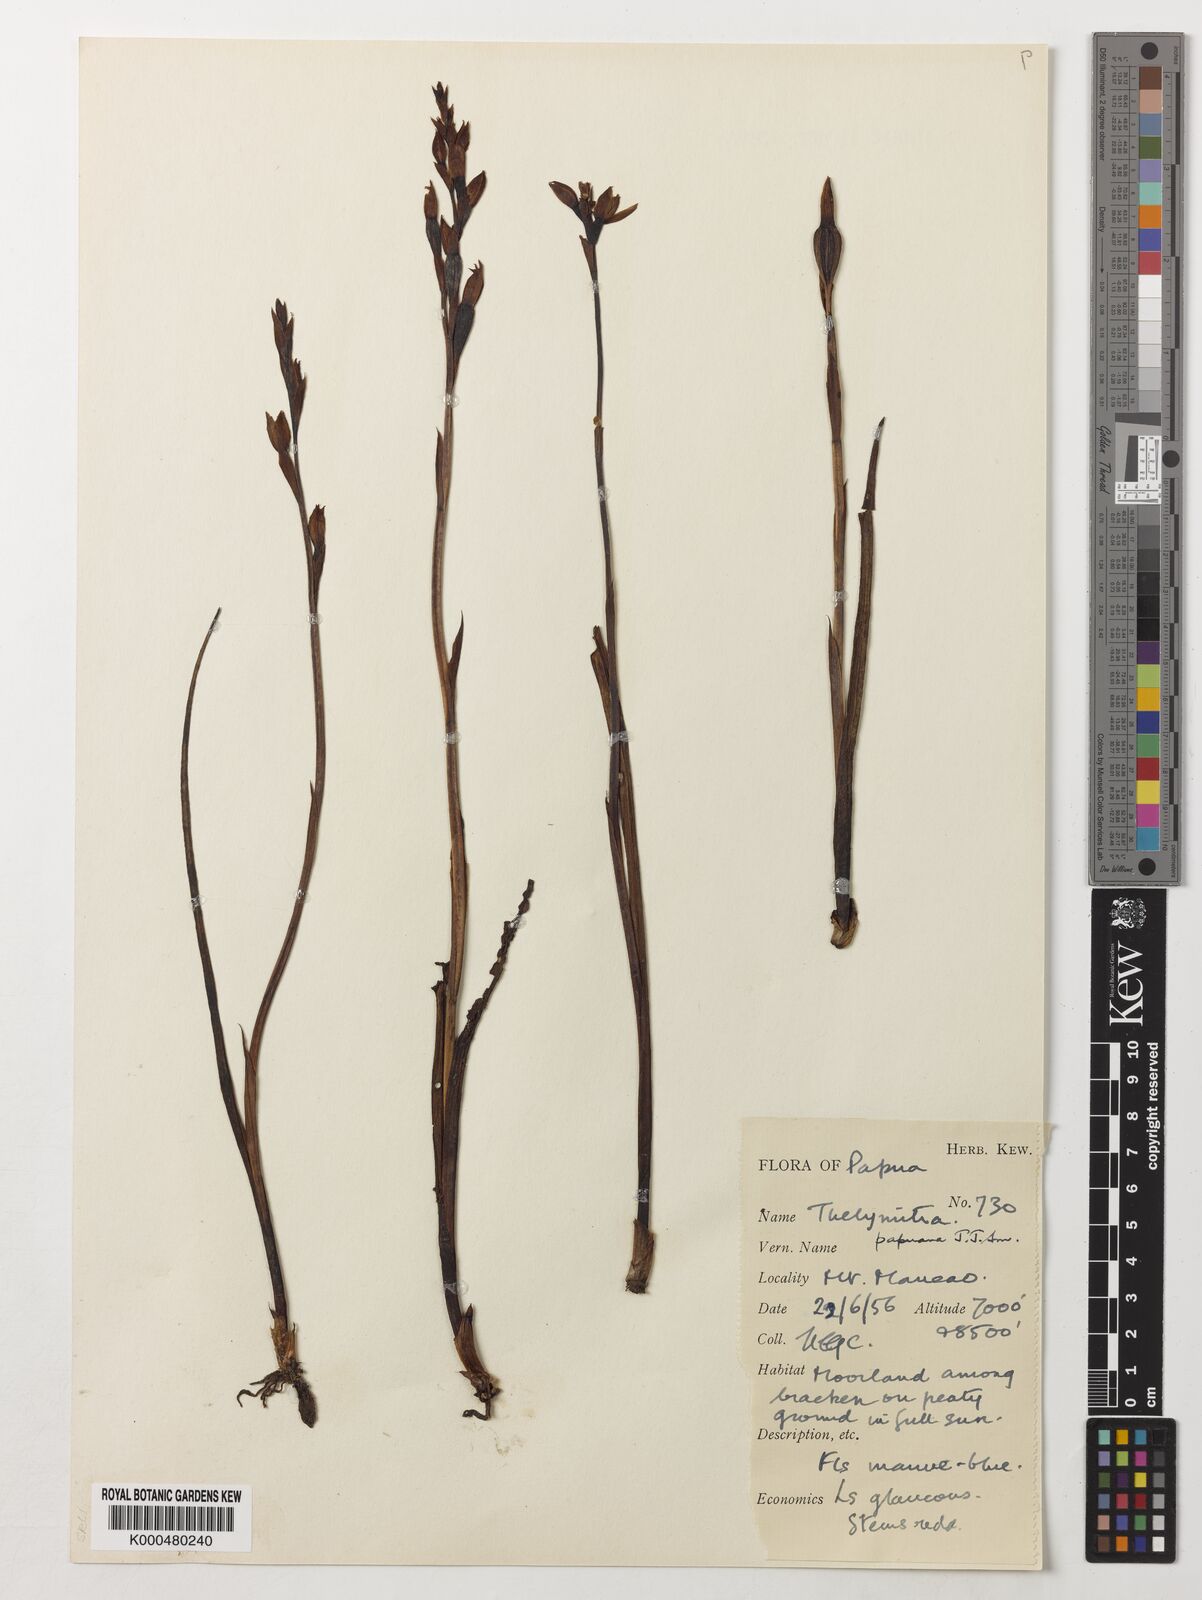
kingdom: Plantae
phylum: Tracheophyta
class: Liliopsida
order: Asparagales
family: Orchidaceae
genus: Thelymitra
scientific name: Thelymitra papuana
